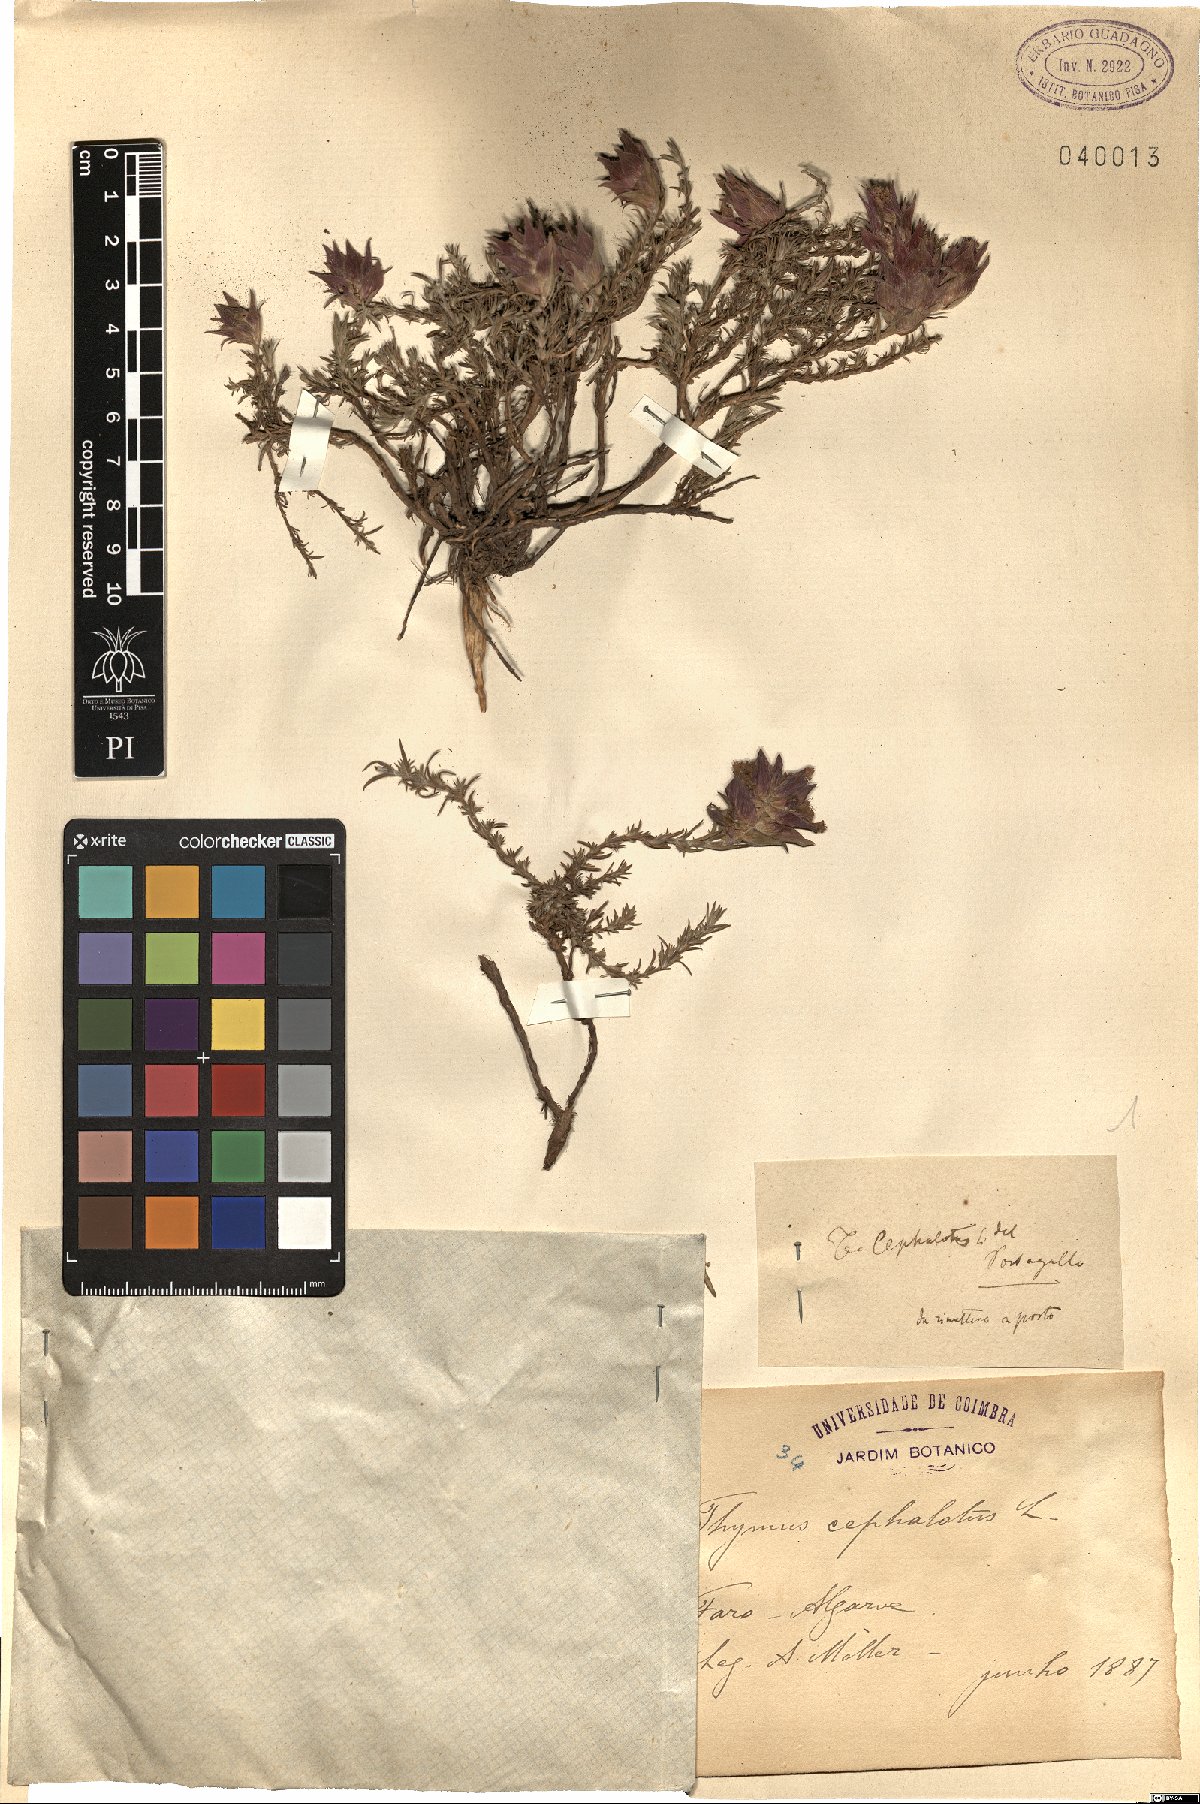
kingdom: Plantae
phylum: Tracheophyta
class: Magnoliopsida
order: Lamiales
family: Lamiaceae
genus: Thymus
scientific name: Thymus moroderi
